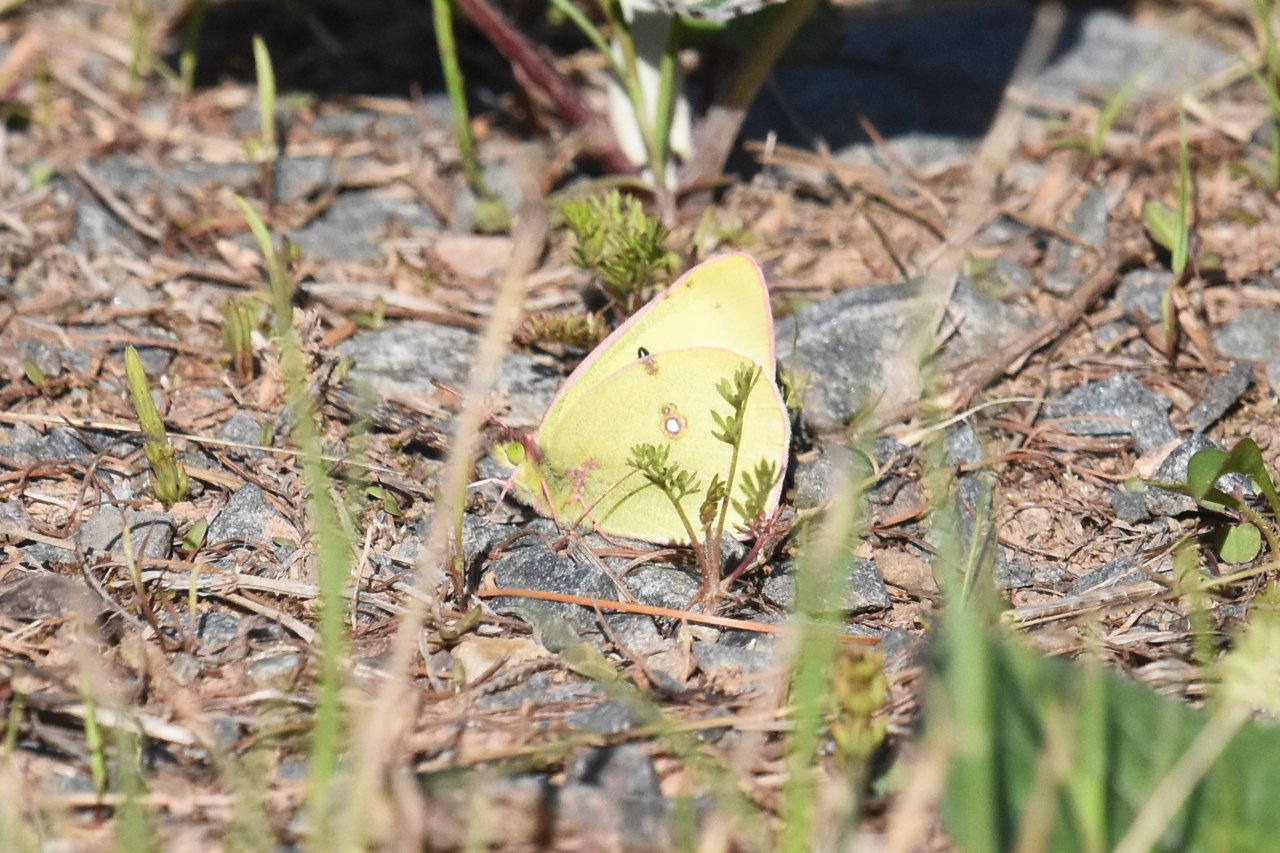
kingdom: Animalia
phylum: Arthropoda
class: Insecta
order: Lepidoptera
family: Pieridae
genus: Colias
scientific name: Colias philodice
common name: Clouded Sulphur
